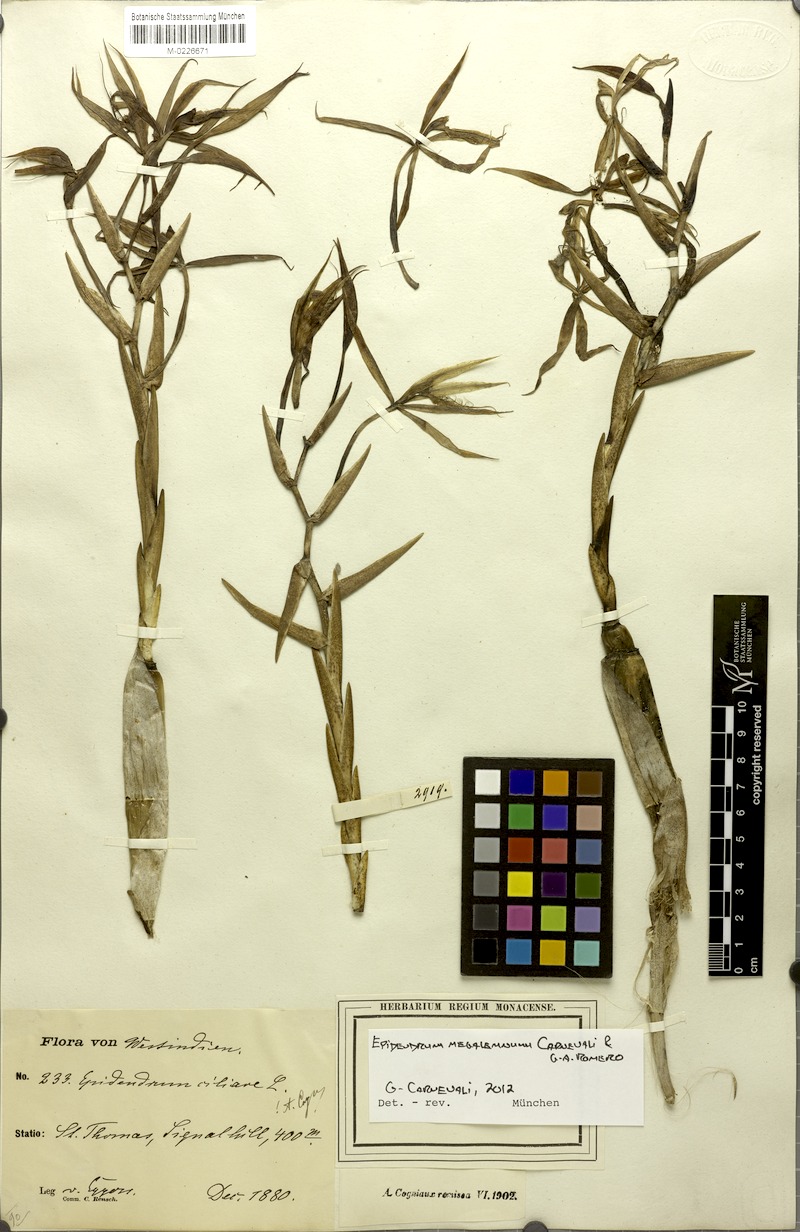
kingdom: Plantae
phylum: Tracheophyta
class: Liliopsida
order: Asparagales
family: Orchidaceae
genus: Epidendrum
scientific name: Epidendrum megalemmum
